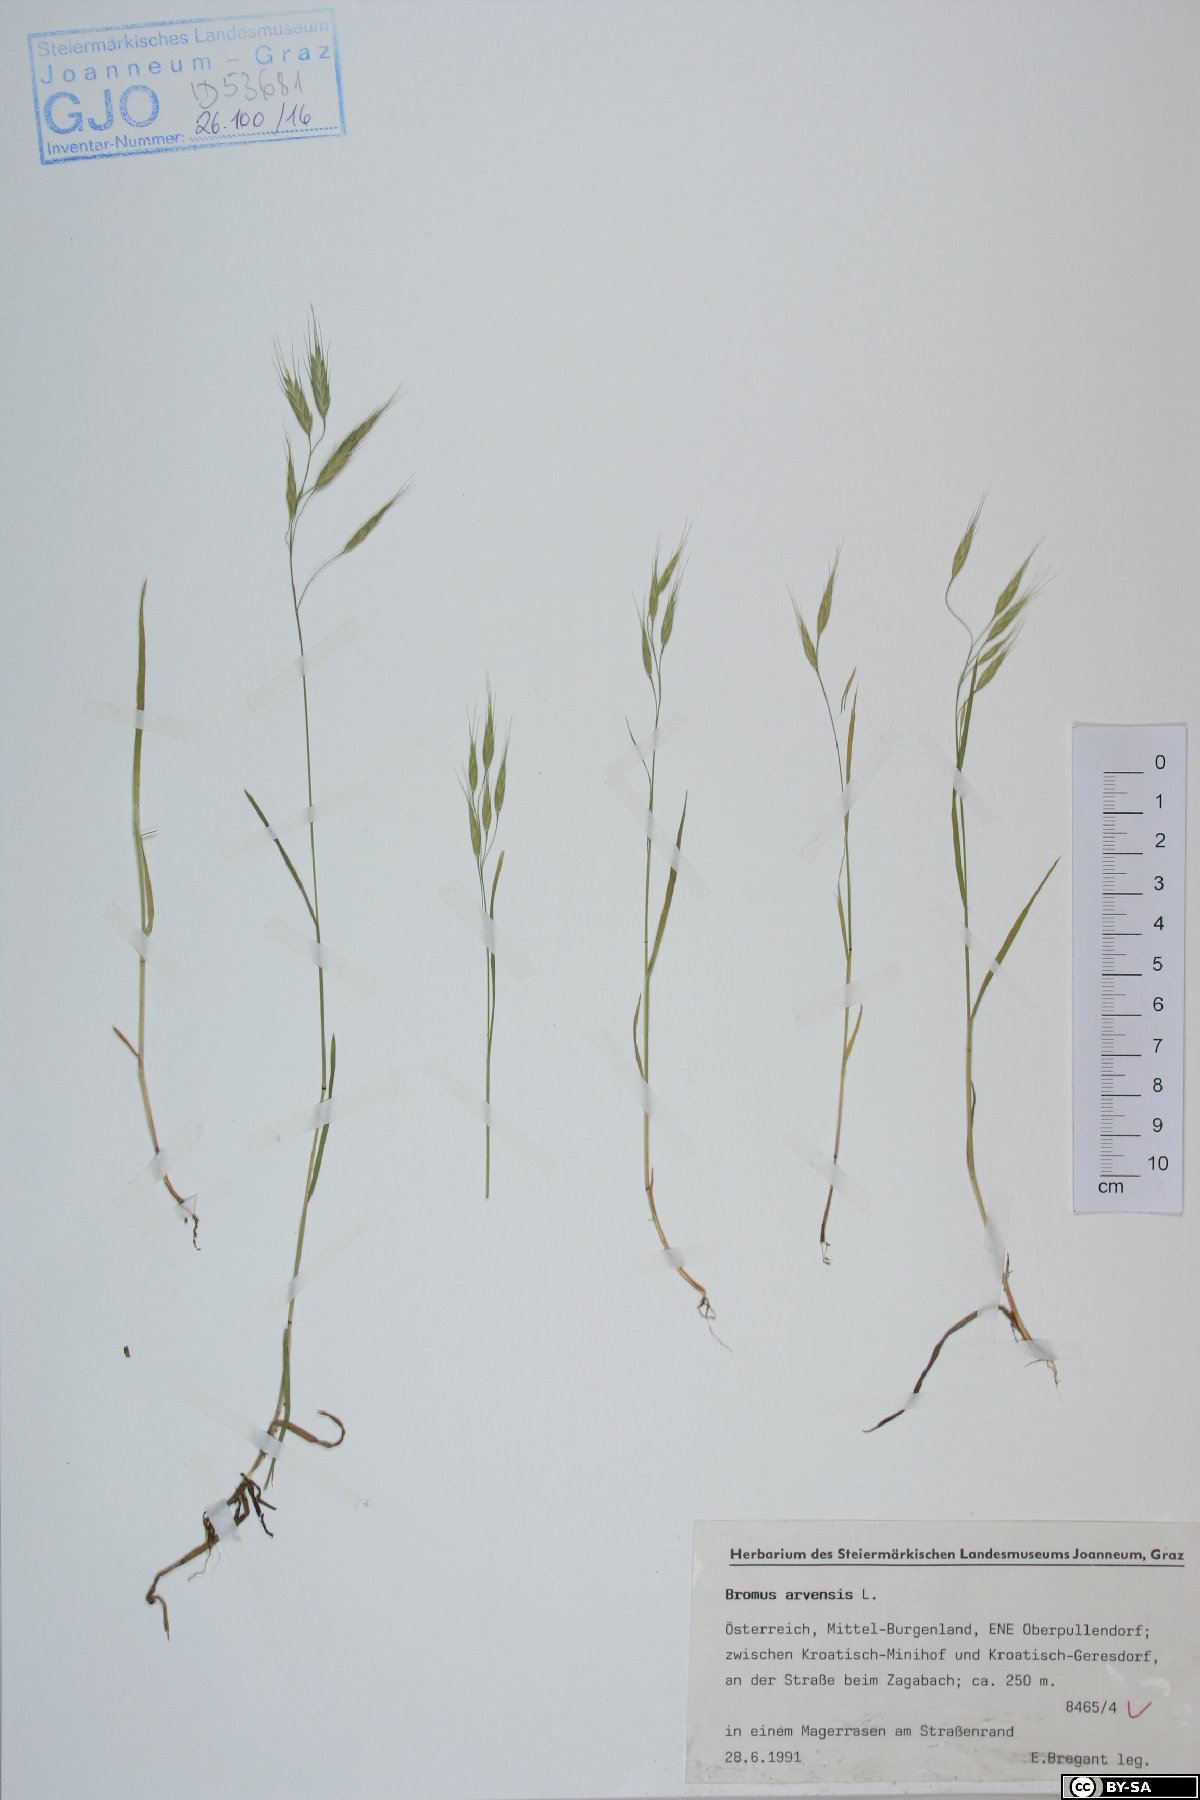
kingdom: Plantae
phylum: Tracheophyta
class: Liliopsida
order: Poales
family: Poaceae
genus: Bromus
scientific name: Bromus arvensis
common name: Field brome
